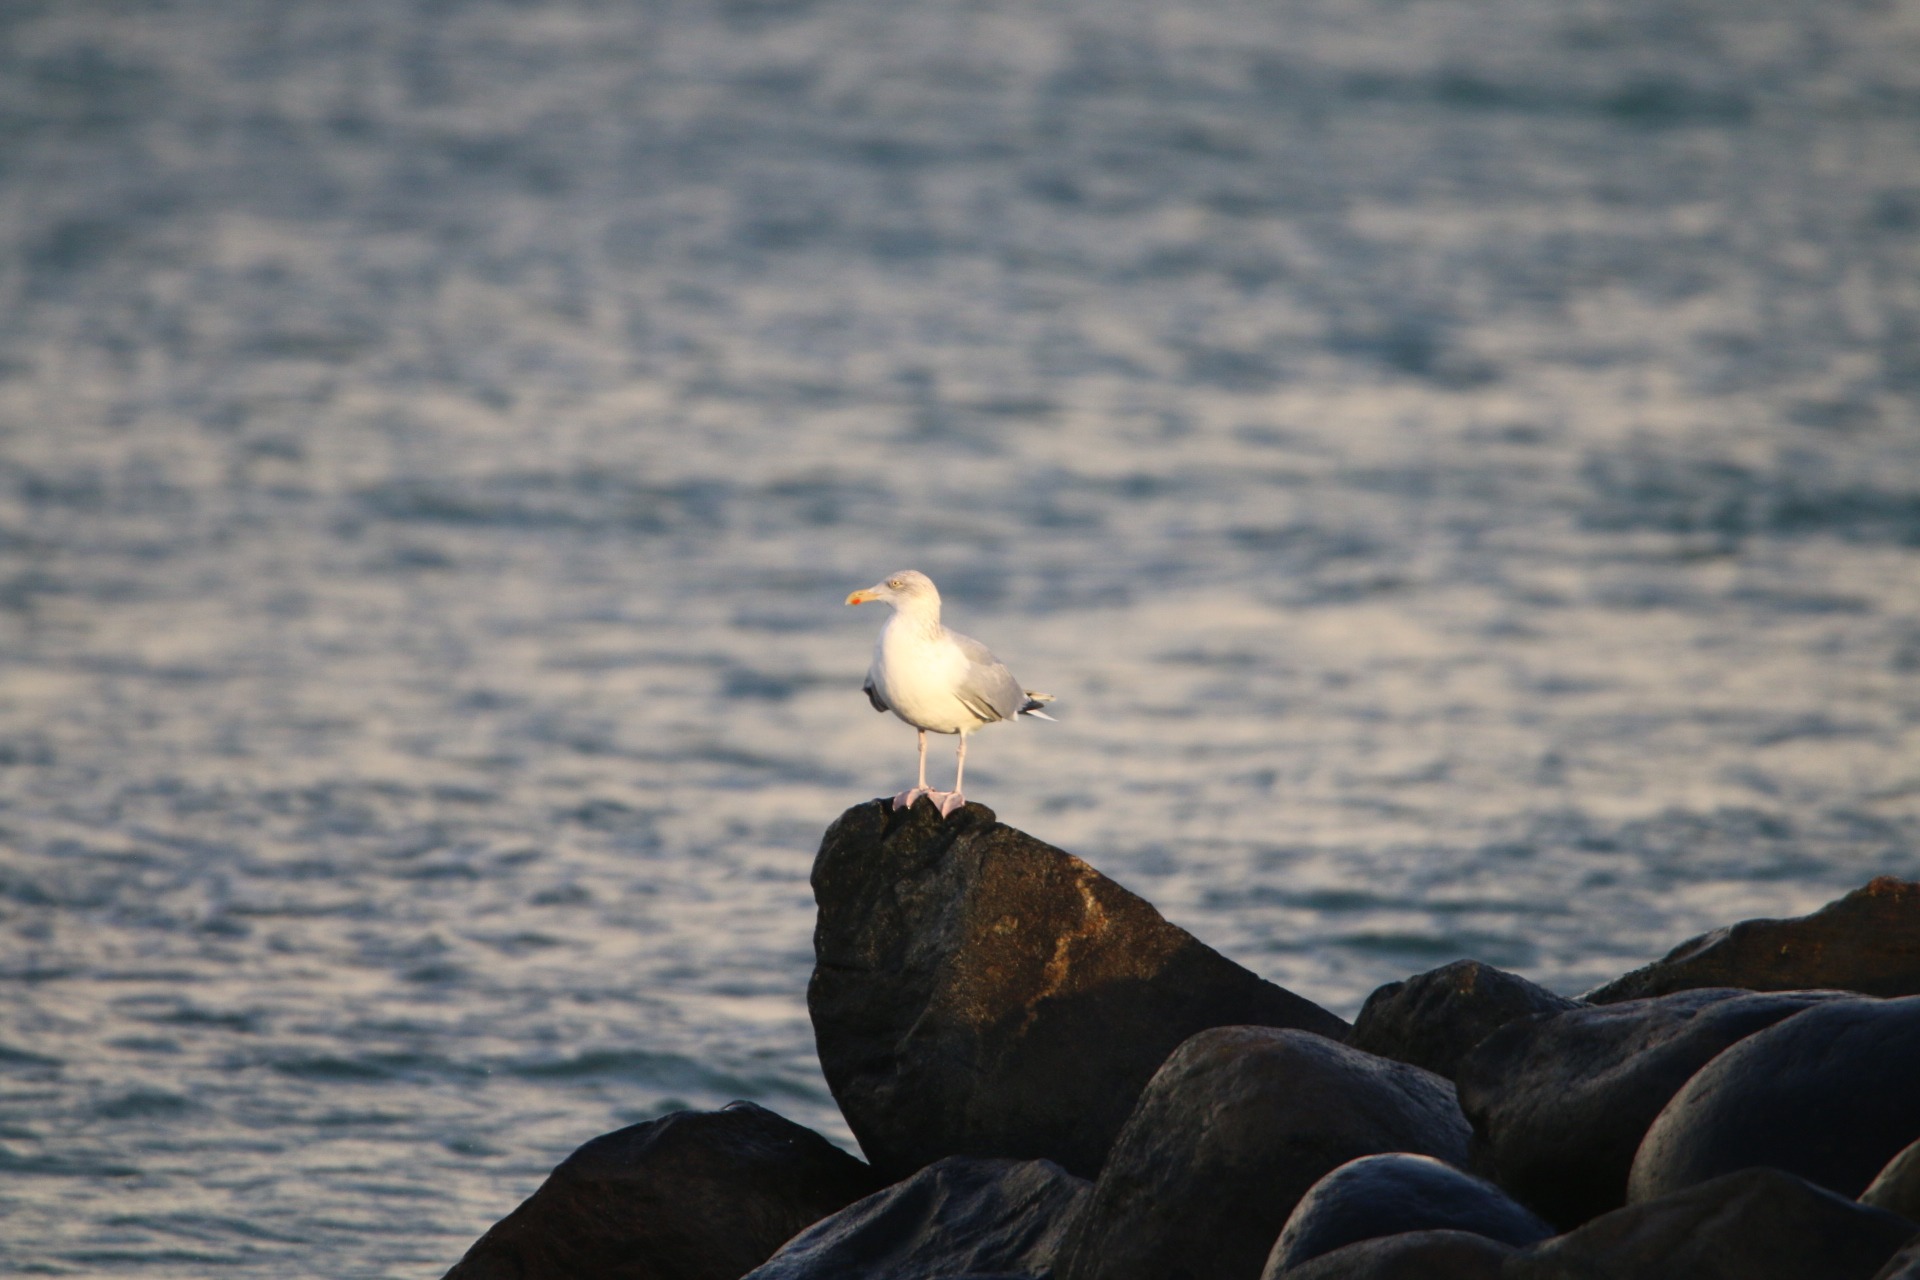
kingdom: Animalia
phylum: Chordata
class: Aves
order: Charadriiformes
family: Laridae
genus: Larus
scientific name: Larus argentatus
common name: Sølvmåge
